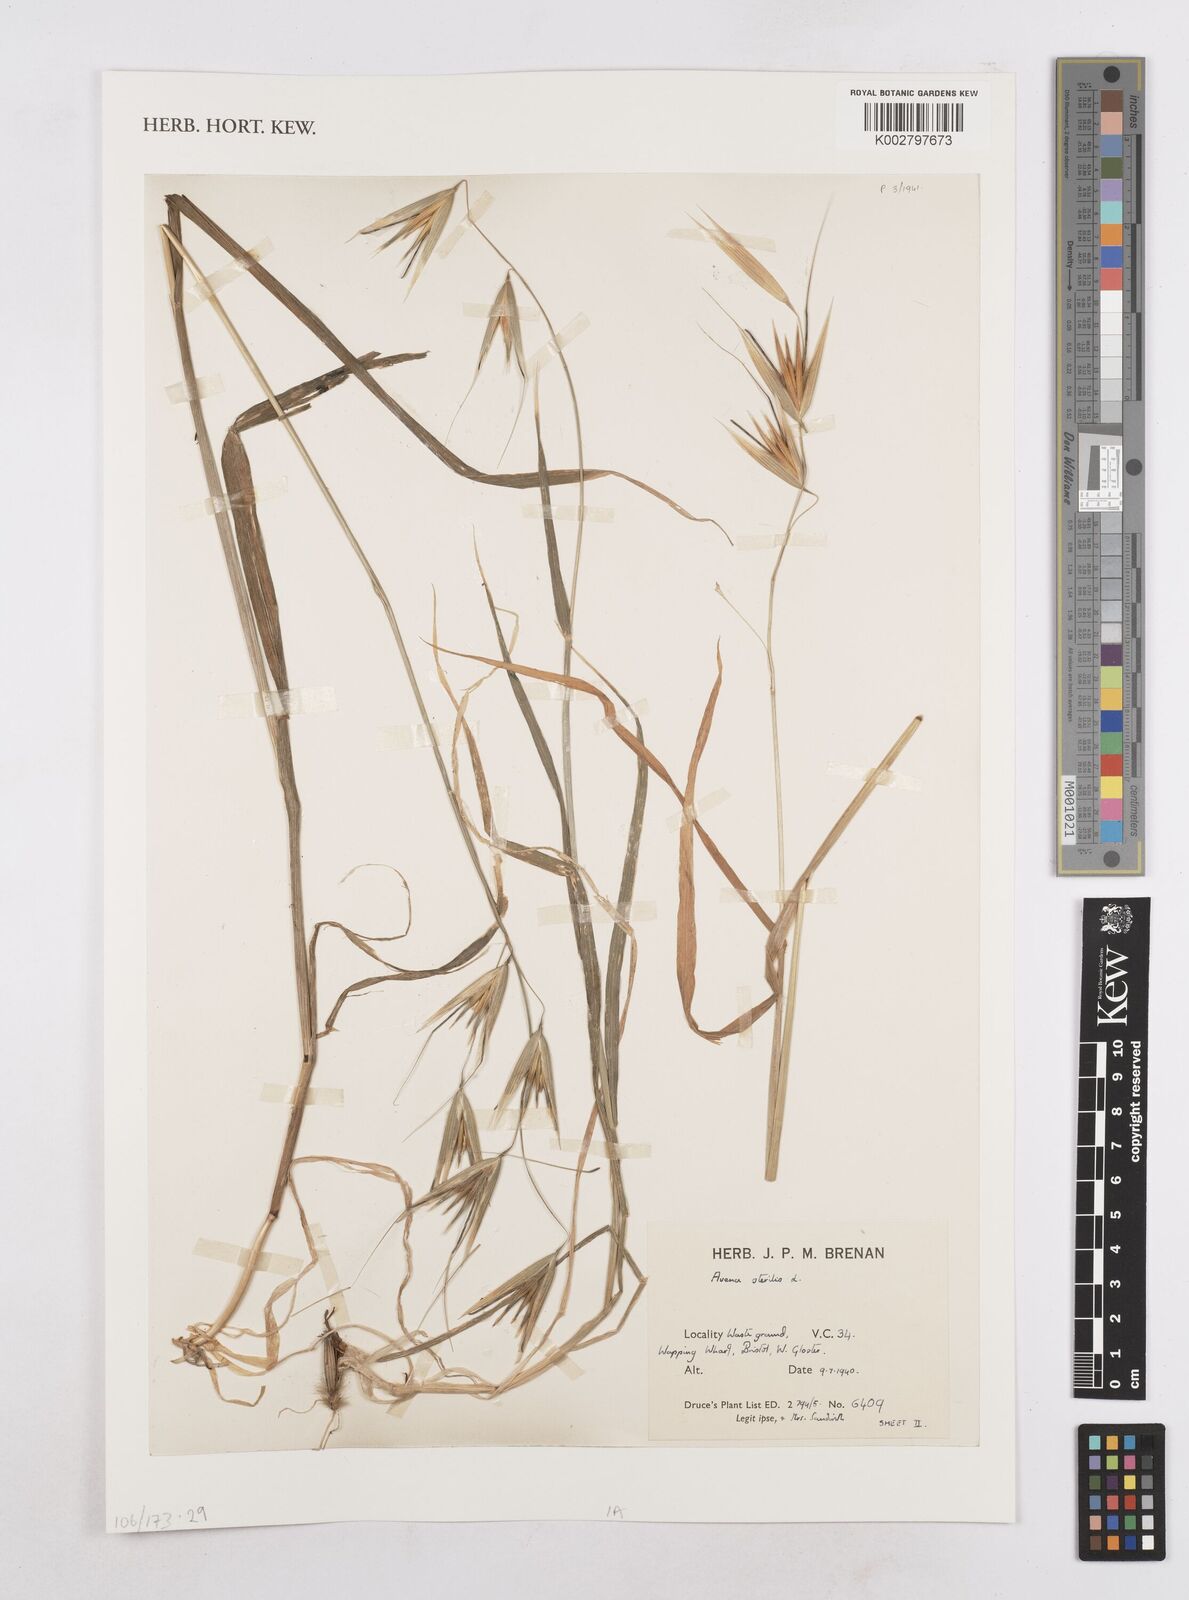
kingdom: Plantae
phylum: Tracheophyta
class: Liliopsida
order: Poales
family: Poaceae
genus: Avena
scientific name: Avena sterilis
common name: Animated oat
